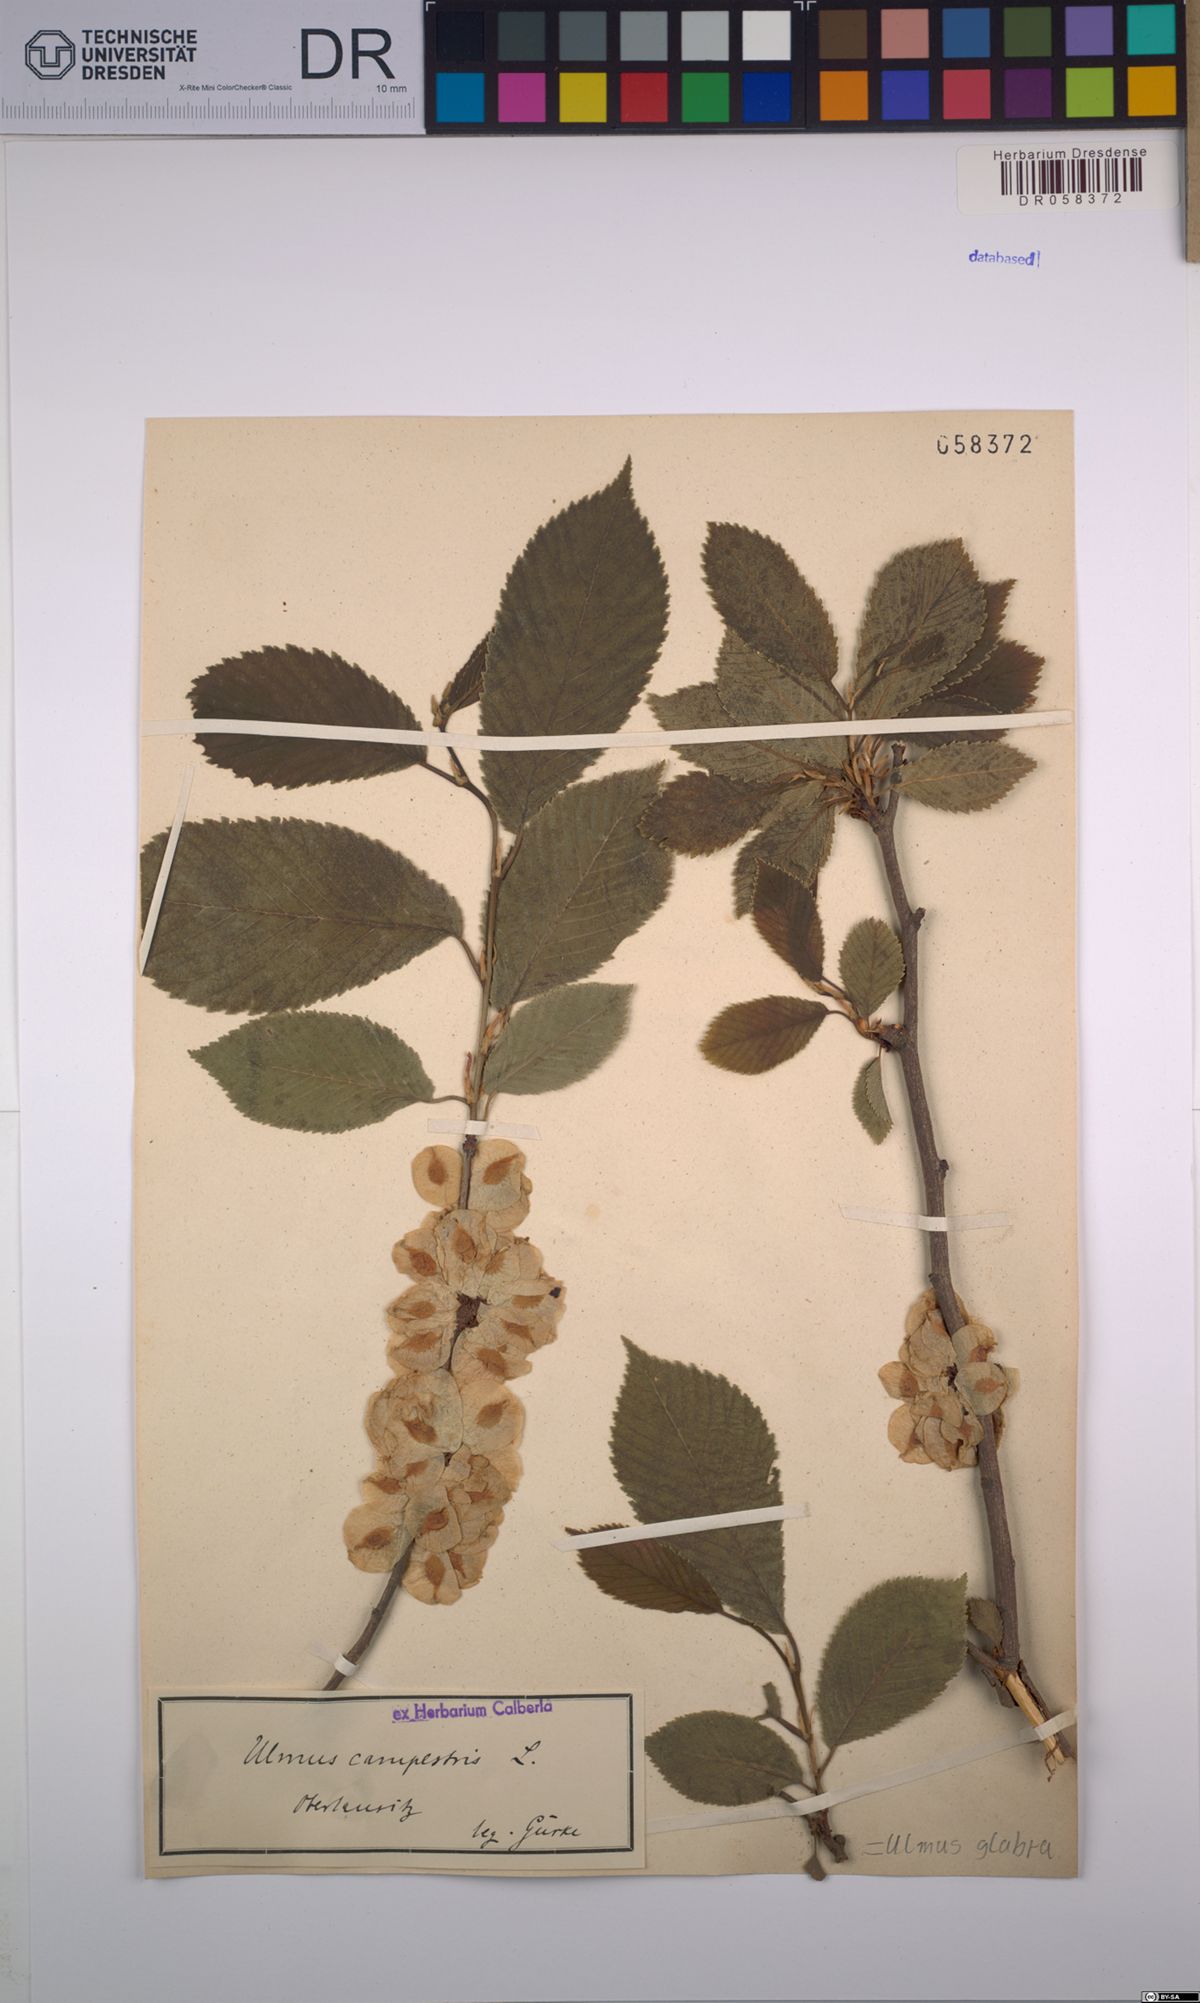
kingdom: Plantae
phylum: Tracheophyta
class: Magnoliopsida
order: Rosales
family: Ulmaceae
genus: Ulmus
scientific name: Ulmus glabra
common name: Wych elm
